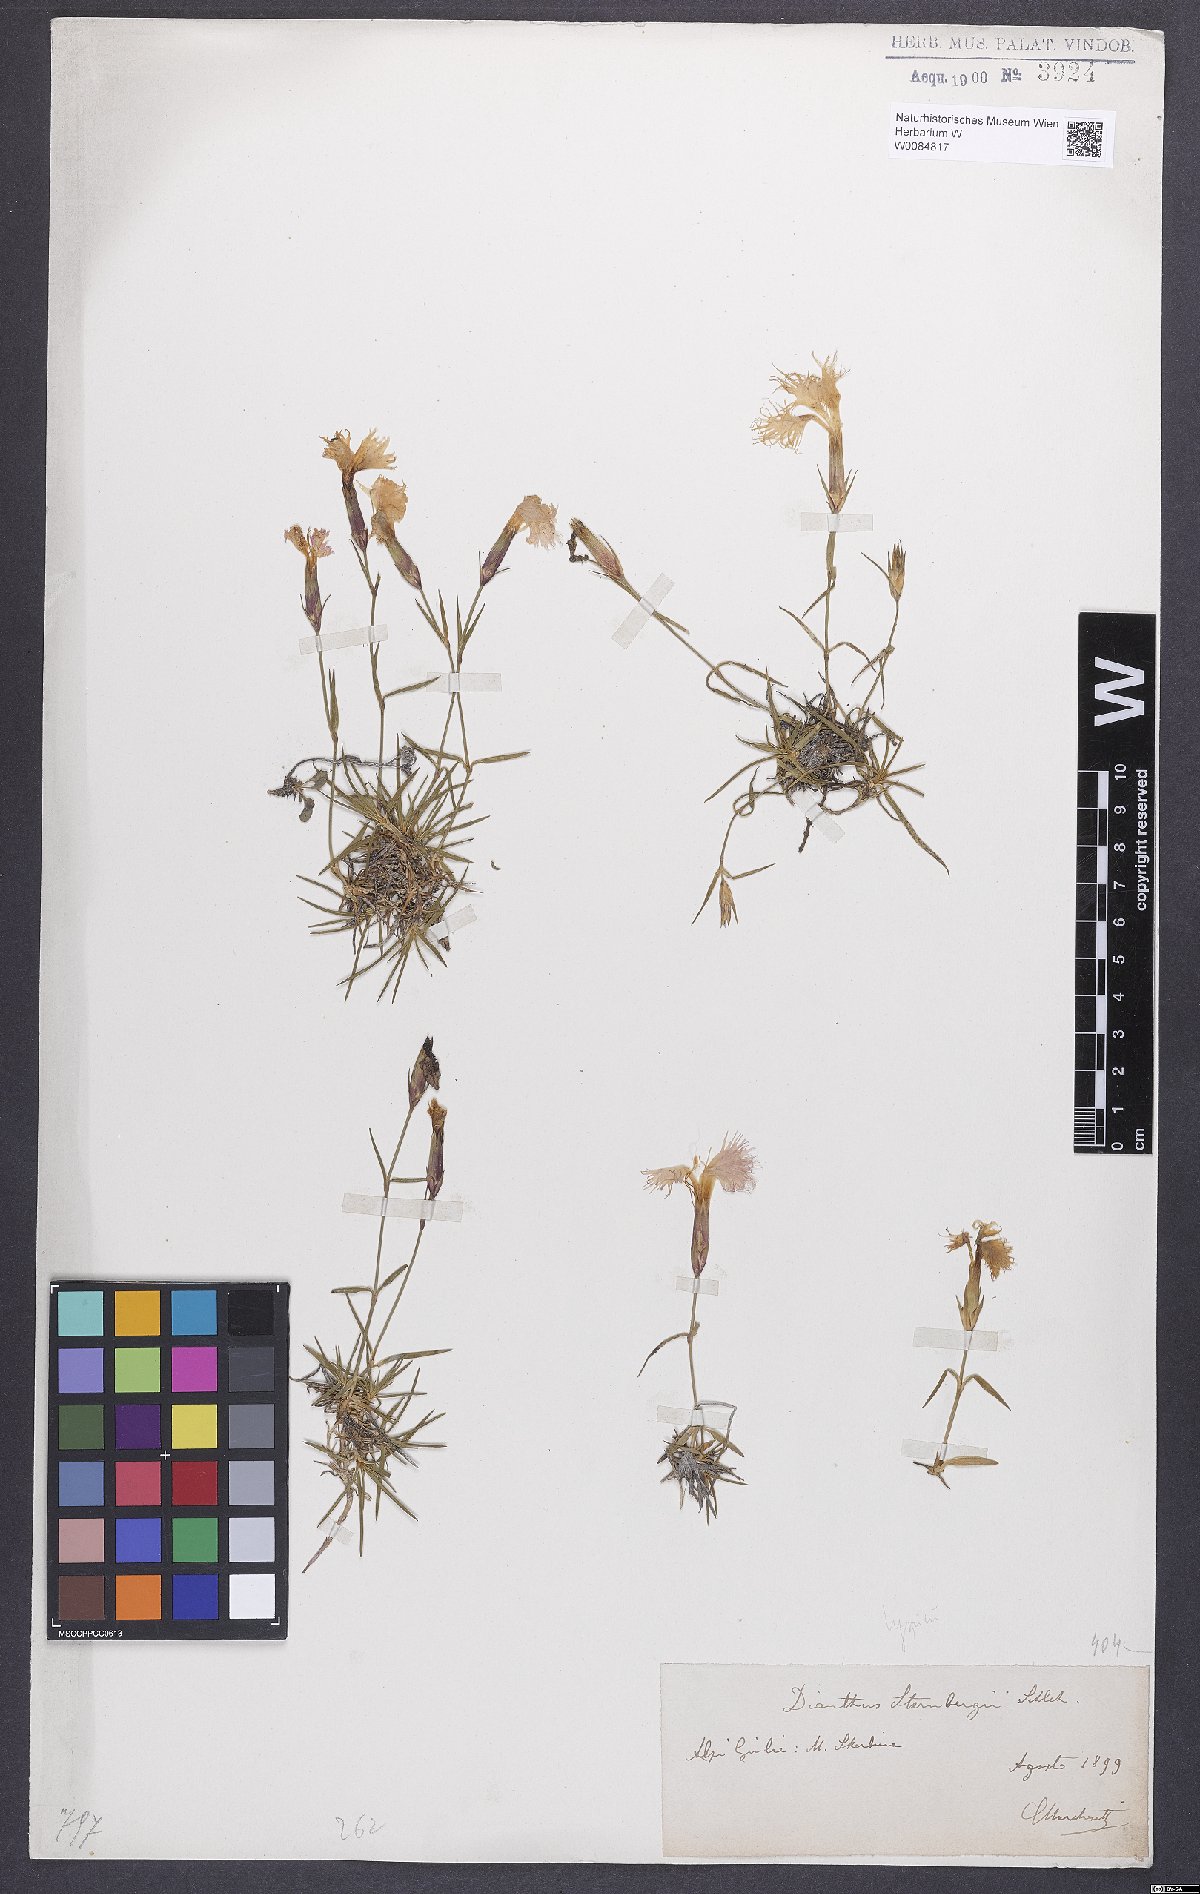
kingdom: Plantae
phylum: Tracheophyta
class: Magnoliopsida
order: Caryophyllales
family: Caryophyllaceae
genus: Dianthus
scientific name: Dianthus monspessulanus
